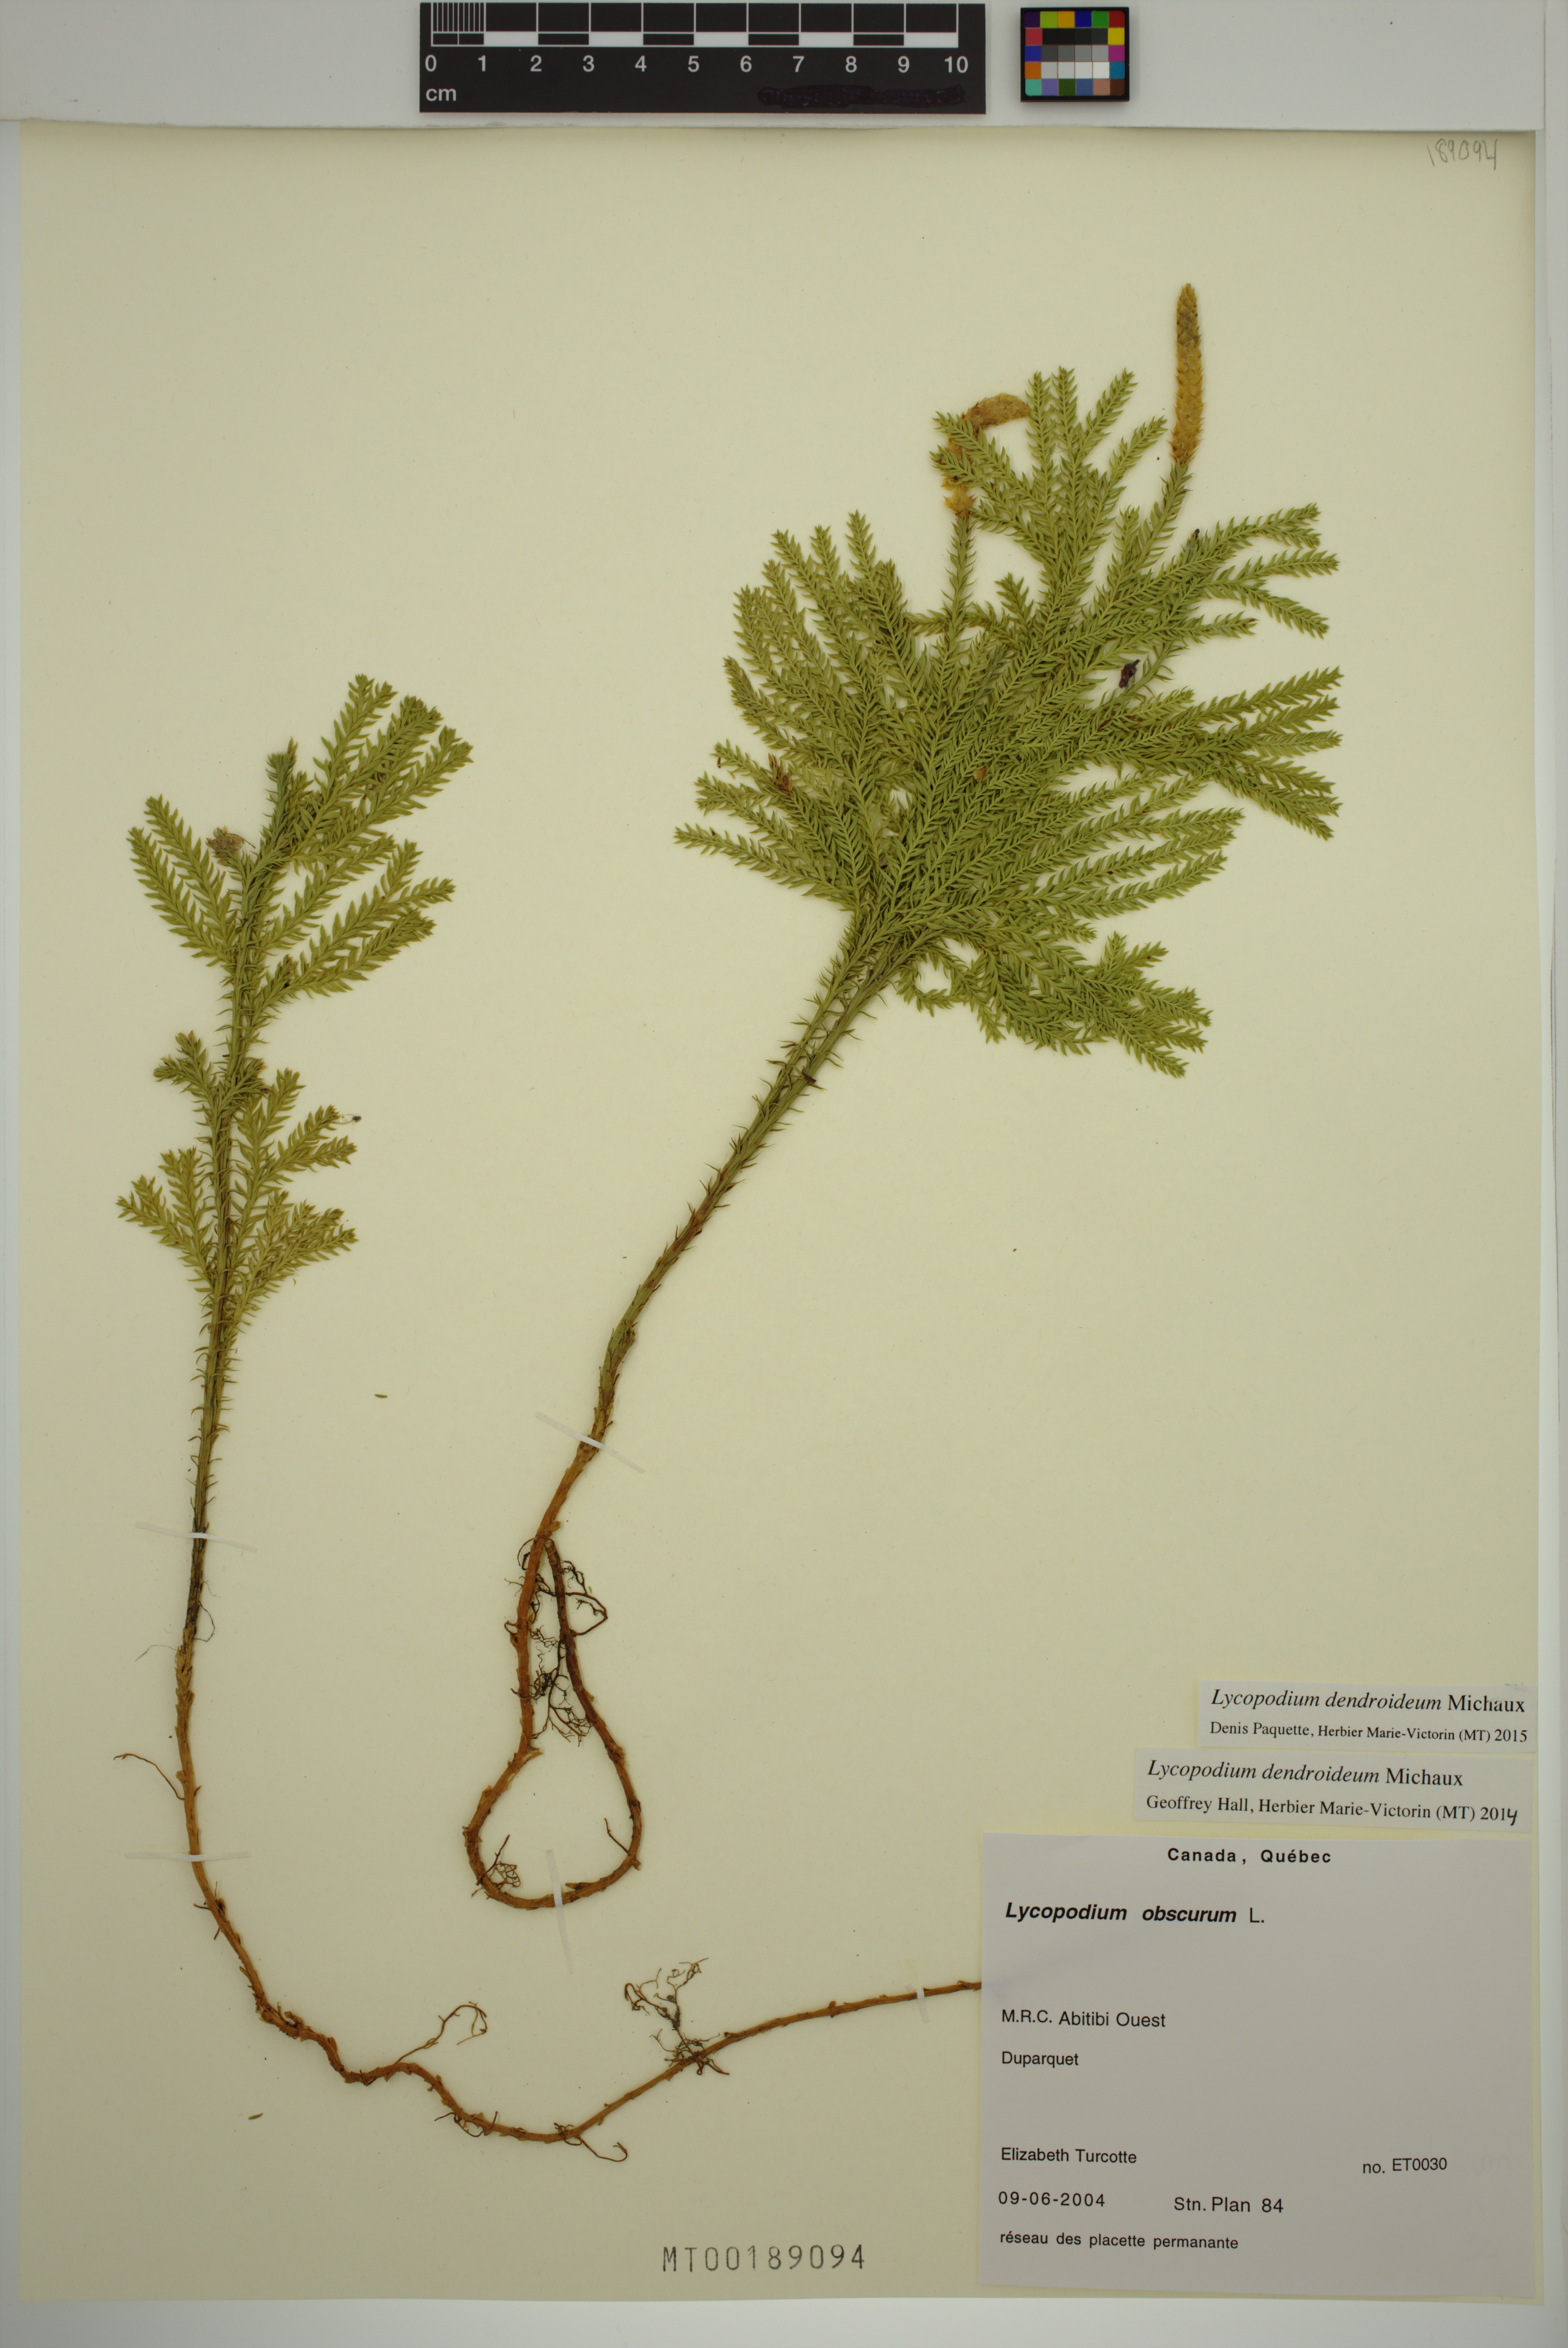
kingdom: Plantae
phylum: Tracheophyta
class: Lycopodiopsida
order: Lycopodiales
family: Lycopodiaceae
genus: Dendrolycopodium
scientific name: Dendrolycopodium dendroideum
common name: Northern tree-clubmoss
